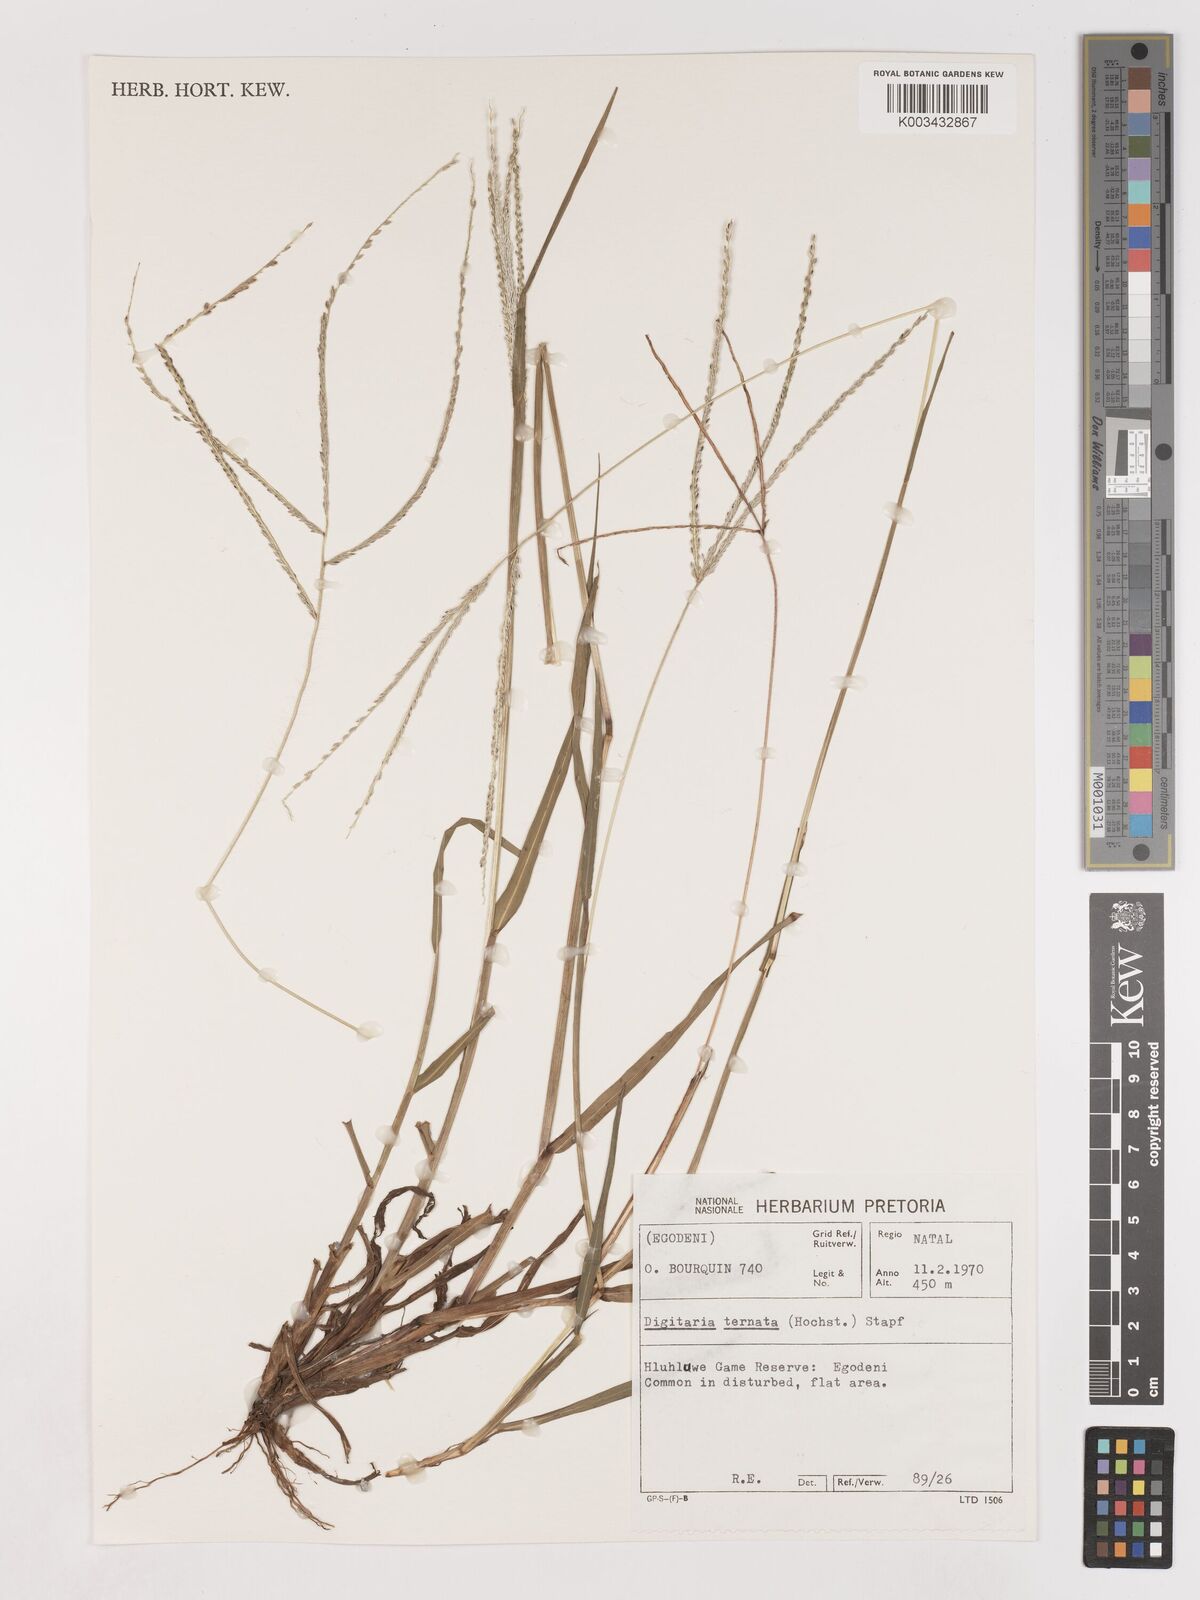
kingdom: Plantae
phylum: Tracheophyta
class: Liliopsida
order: Poales
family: Poaceae
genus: Digitaria
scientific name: Digitaria ternata
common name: Blackseed crabgrass
